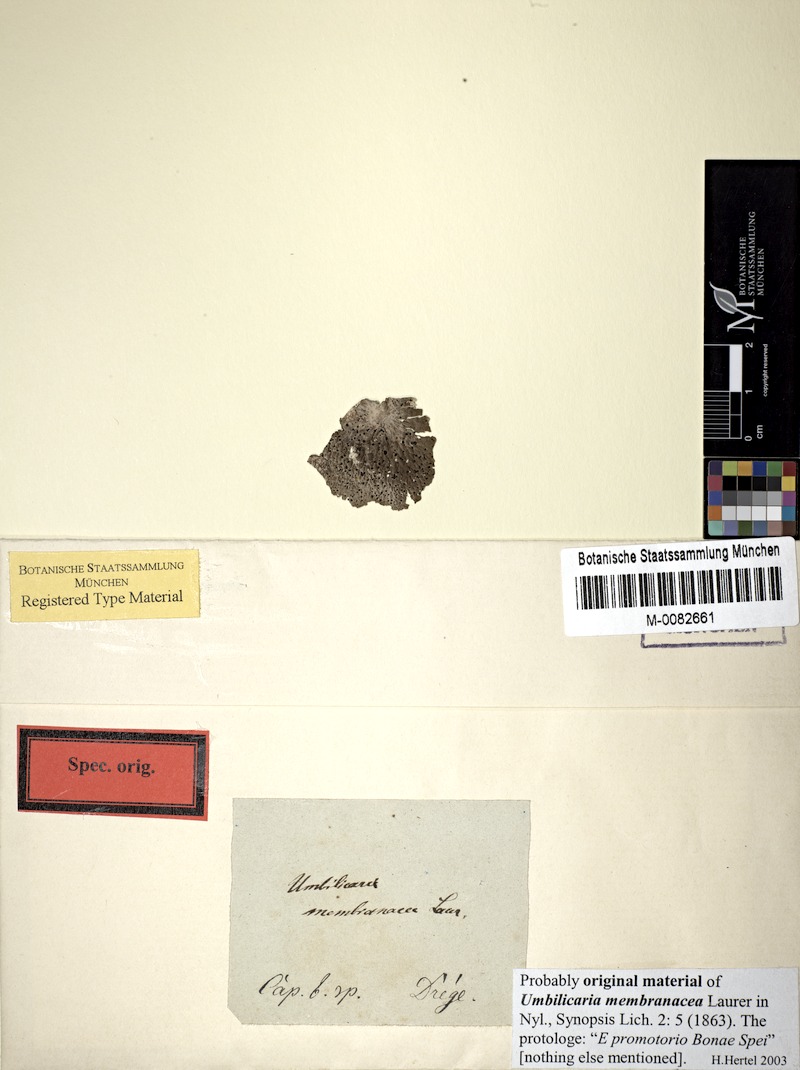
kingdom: Fungi
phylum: Ascomycota
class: Lecanoromycetes
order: Umbilicariales
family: Umbilicariaceae
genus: Lasallia
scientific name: Lasallia
